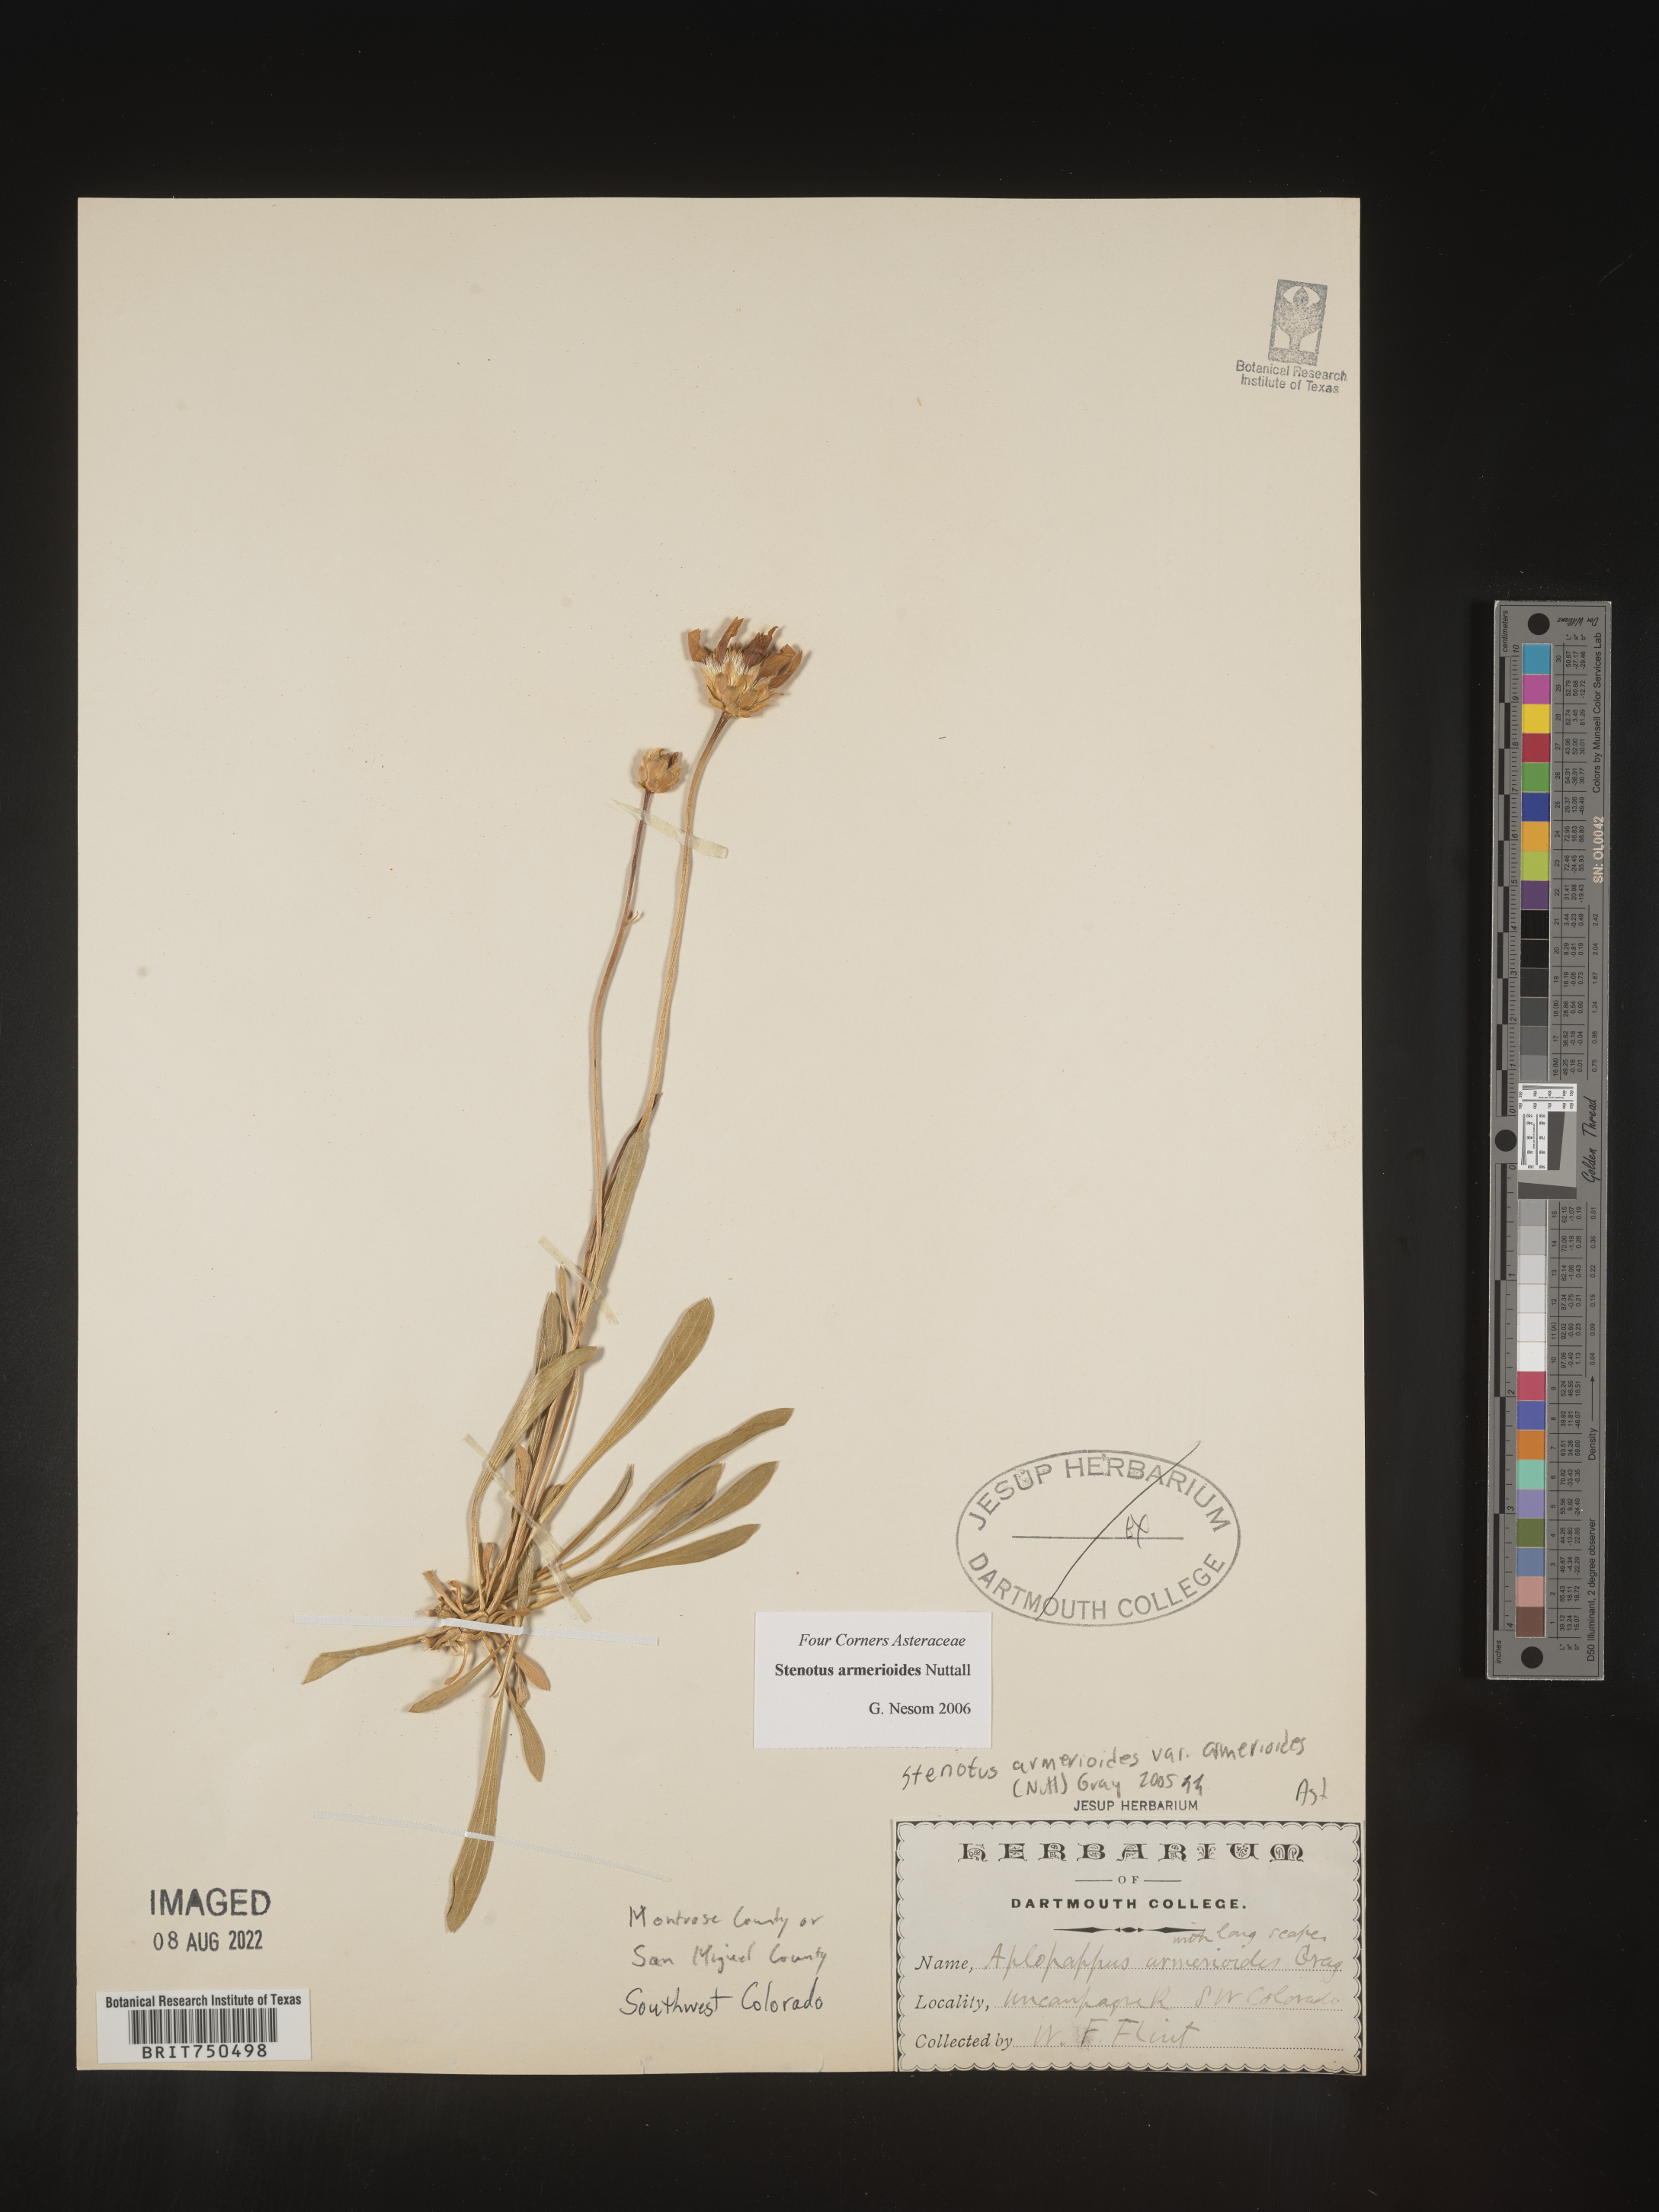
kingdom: Plantae
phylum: Tracheophyta
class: Magnoliopsida
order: Asterales
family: Asteraceae
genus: Stenotus
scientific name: Stenotus armerioides
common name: Thrifty goldenweed
